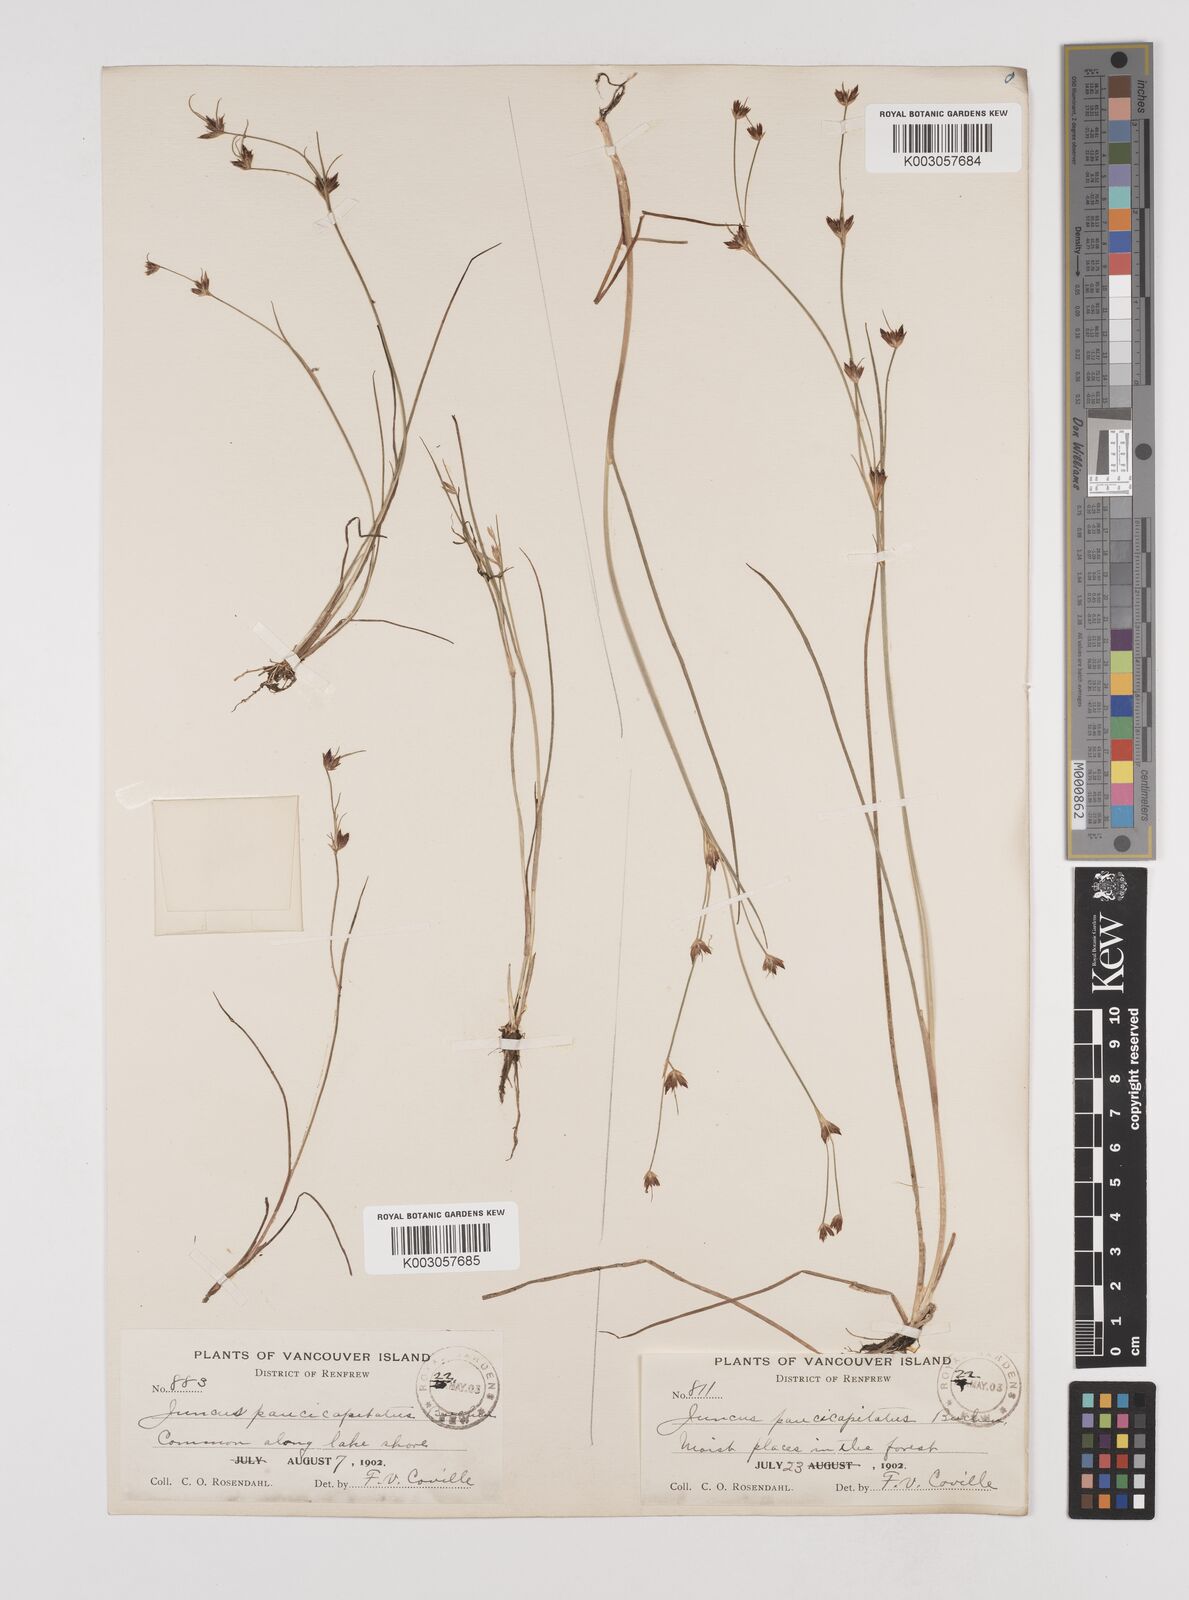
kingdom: Plantae
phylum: Tracheophyta
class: Liliopsida
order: Poales
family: Juncaceae
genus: Juncus
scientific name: Juncus supiniformis
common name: Hairy-leaved rush
